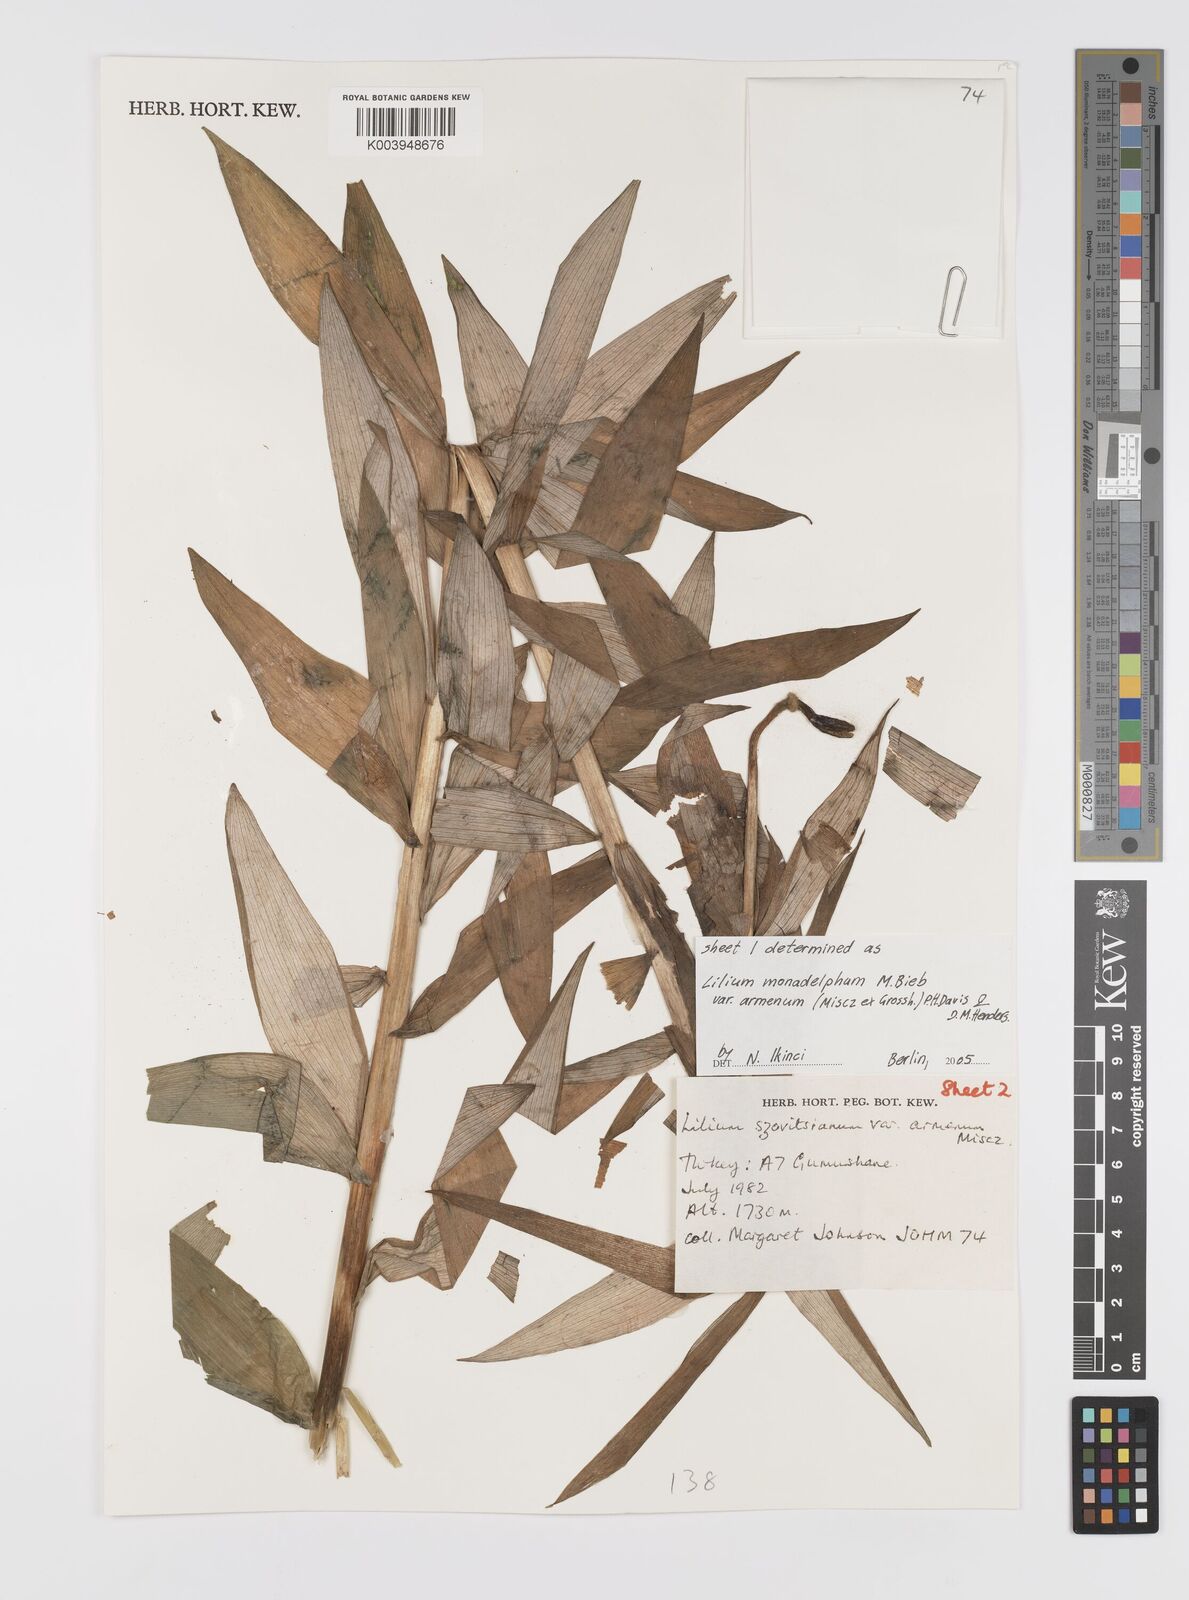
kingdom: Plantae
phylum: Tracheophyta
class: Liliopsida
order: Liliales
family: Liliaceae
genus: Lilium
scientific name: Lilium armenum
